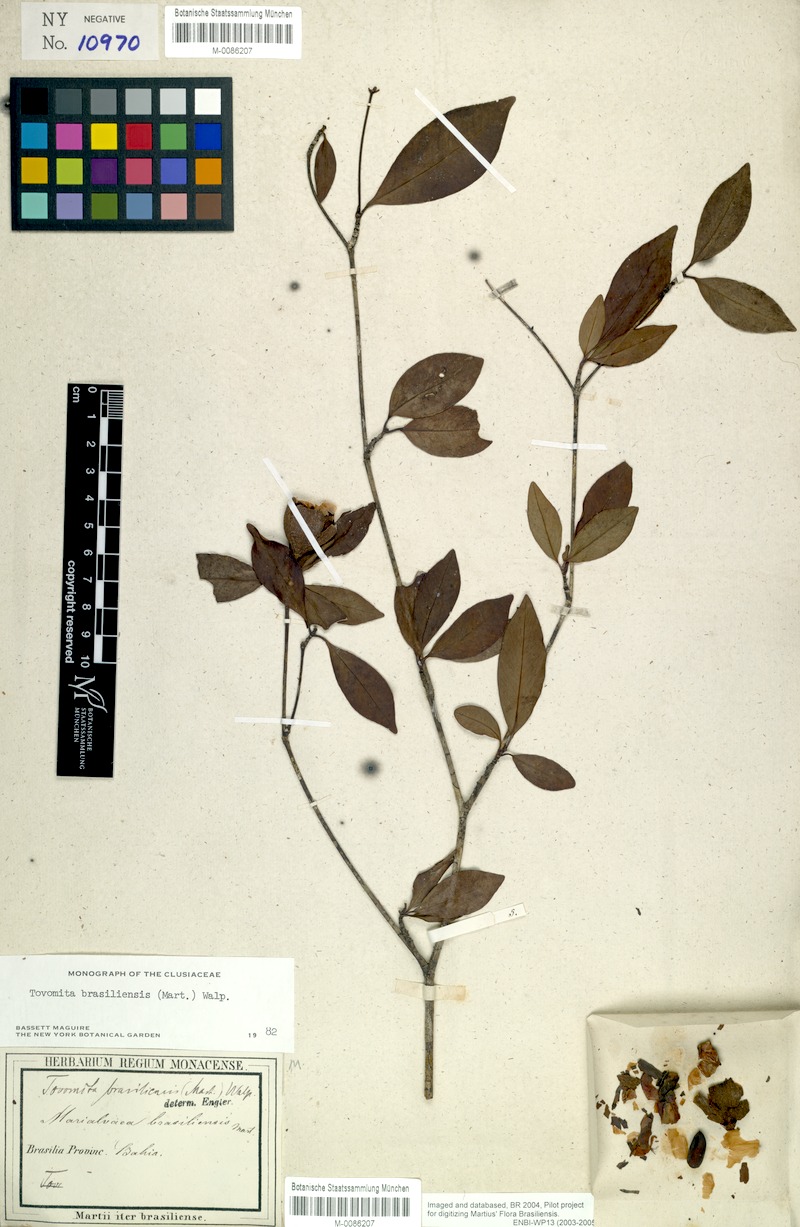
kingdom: Plantae
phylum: Tracheophyta
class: Magnoliopsida
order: Malpighiales
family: Clusiaceae
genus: Tovomita
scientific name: Tovomita fructipendula
